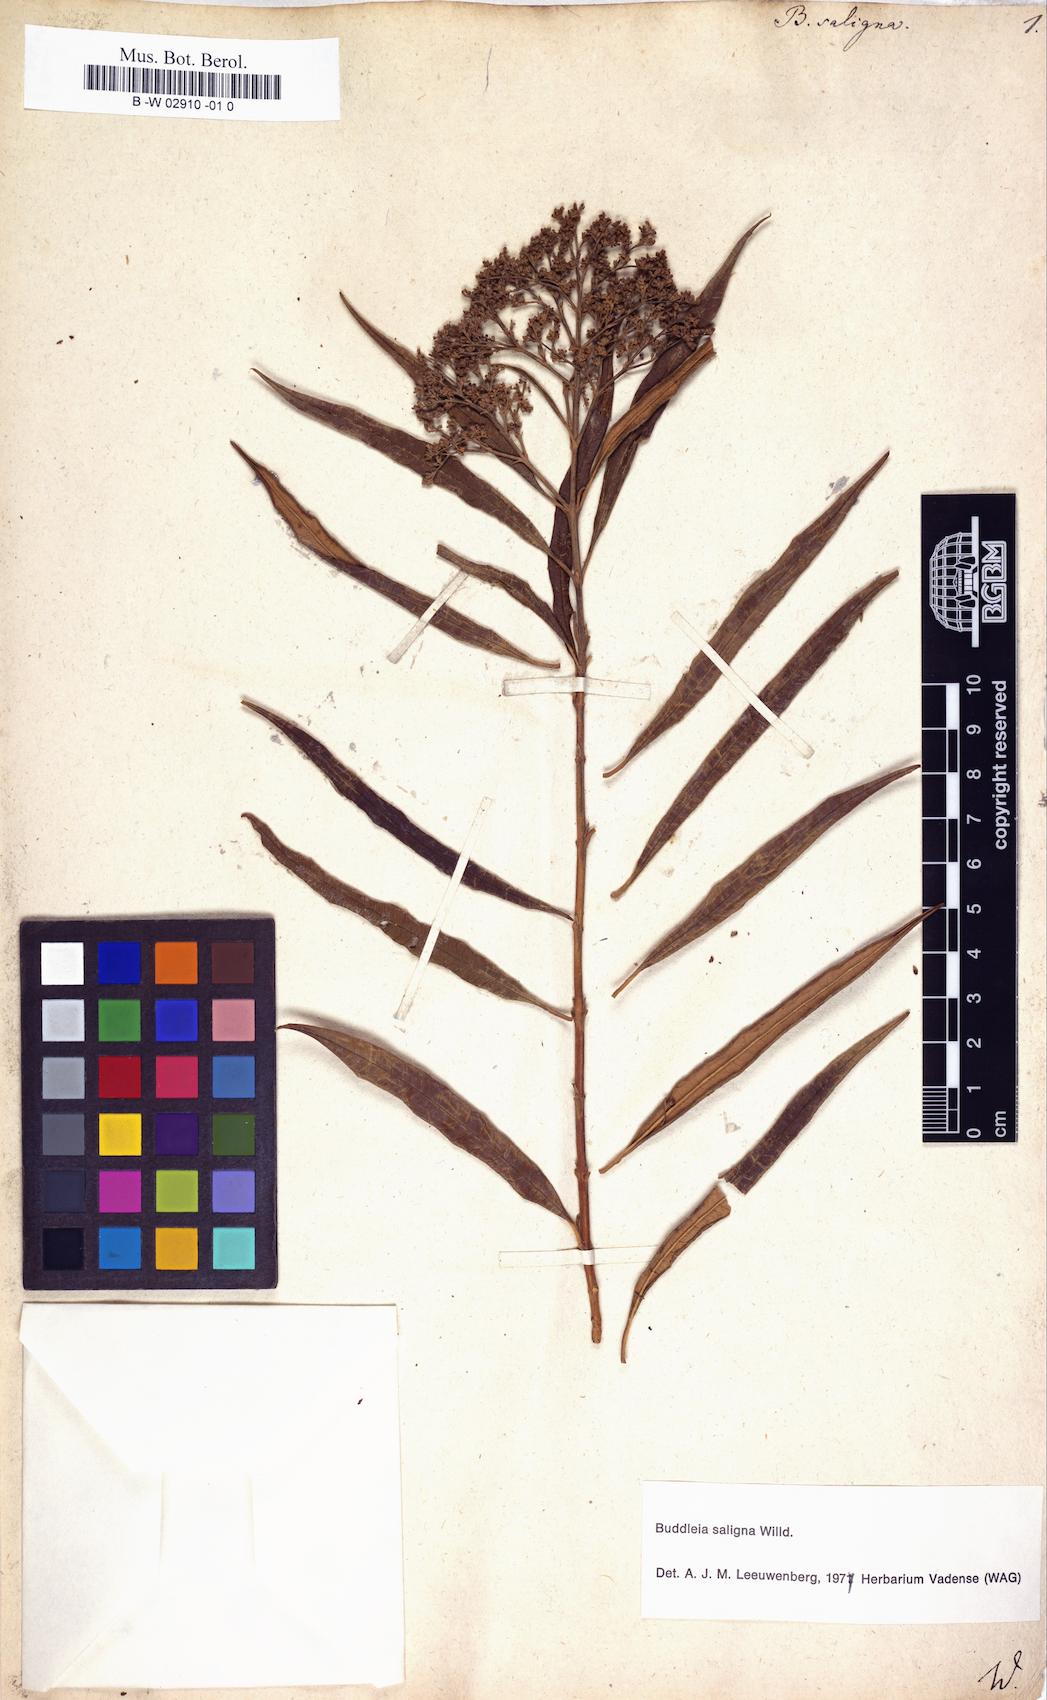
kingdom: Plantae
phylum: Tracheophyta
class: Magnoliopsida
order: Lamiales
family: Scrophulariaceae
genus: Buddleja
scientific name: Buddleja saligna
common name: False olive
